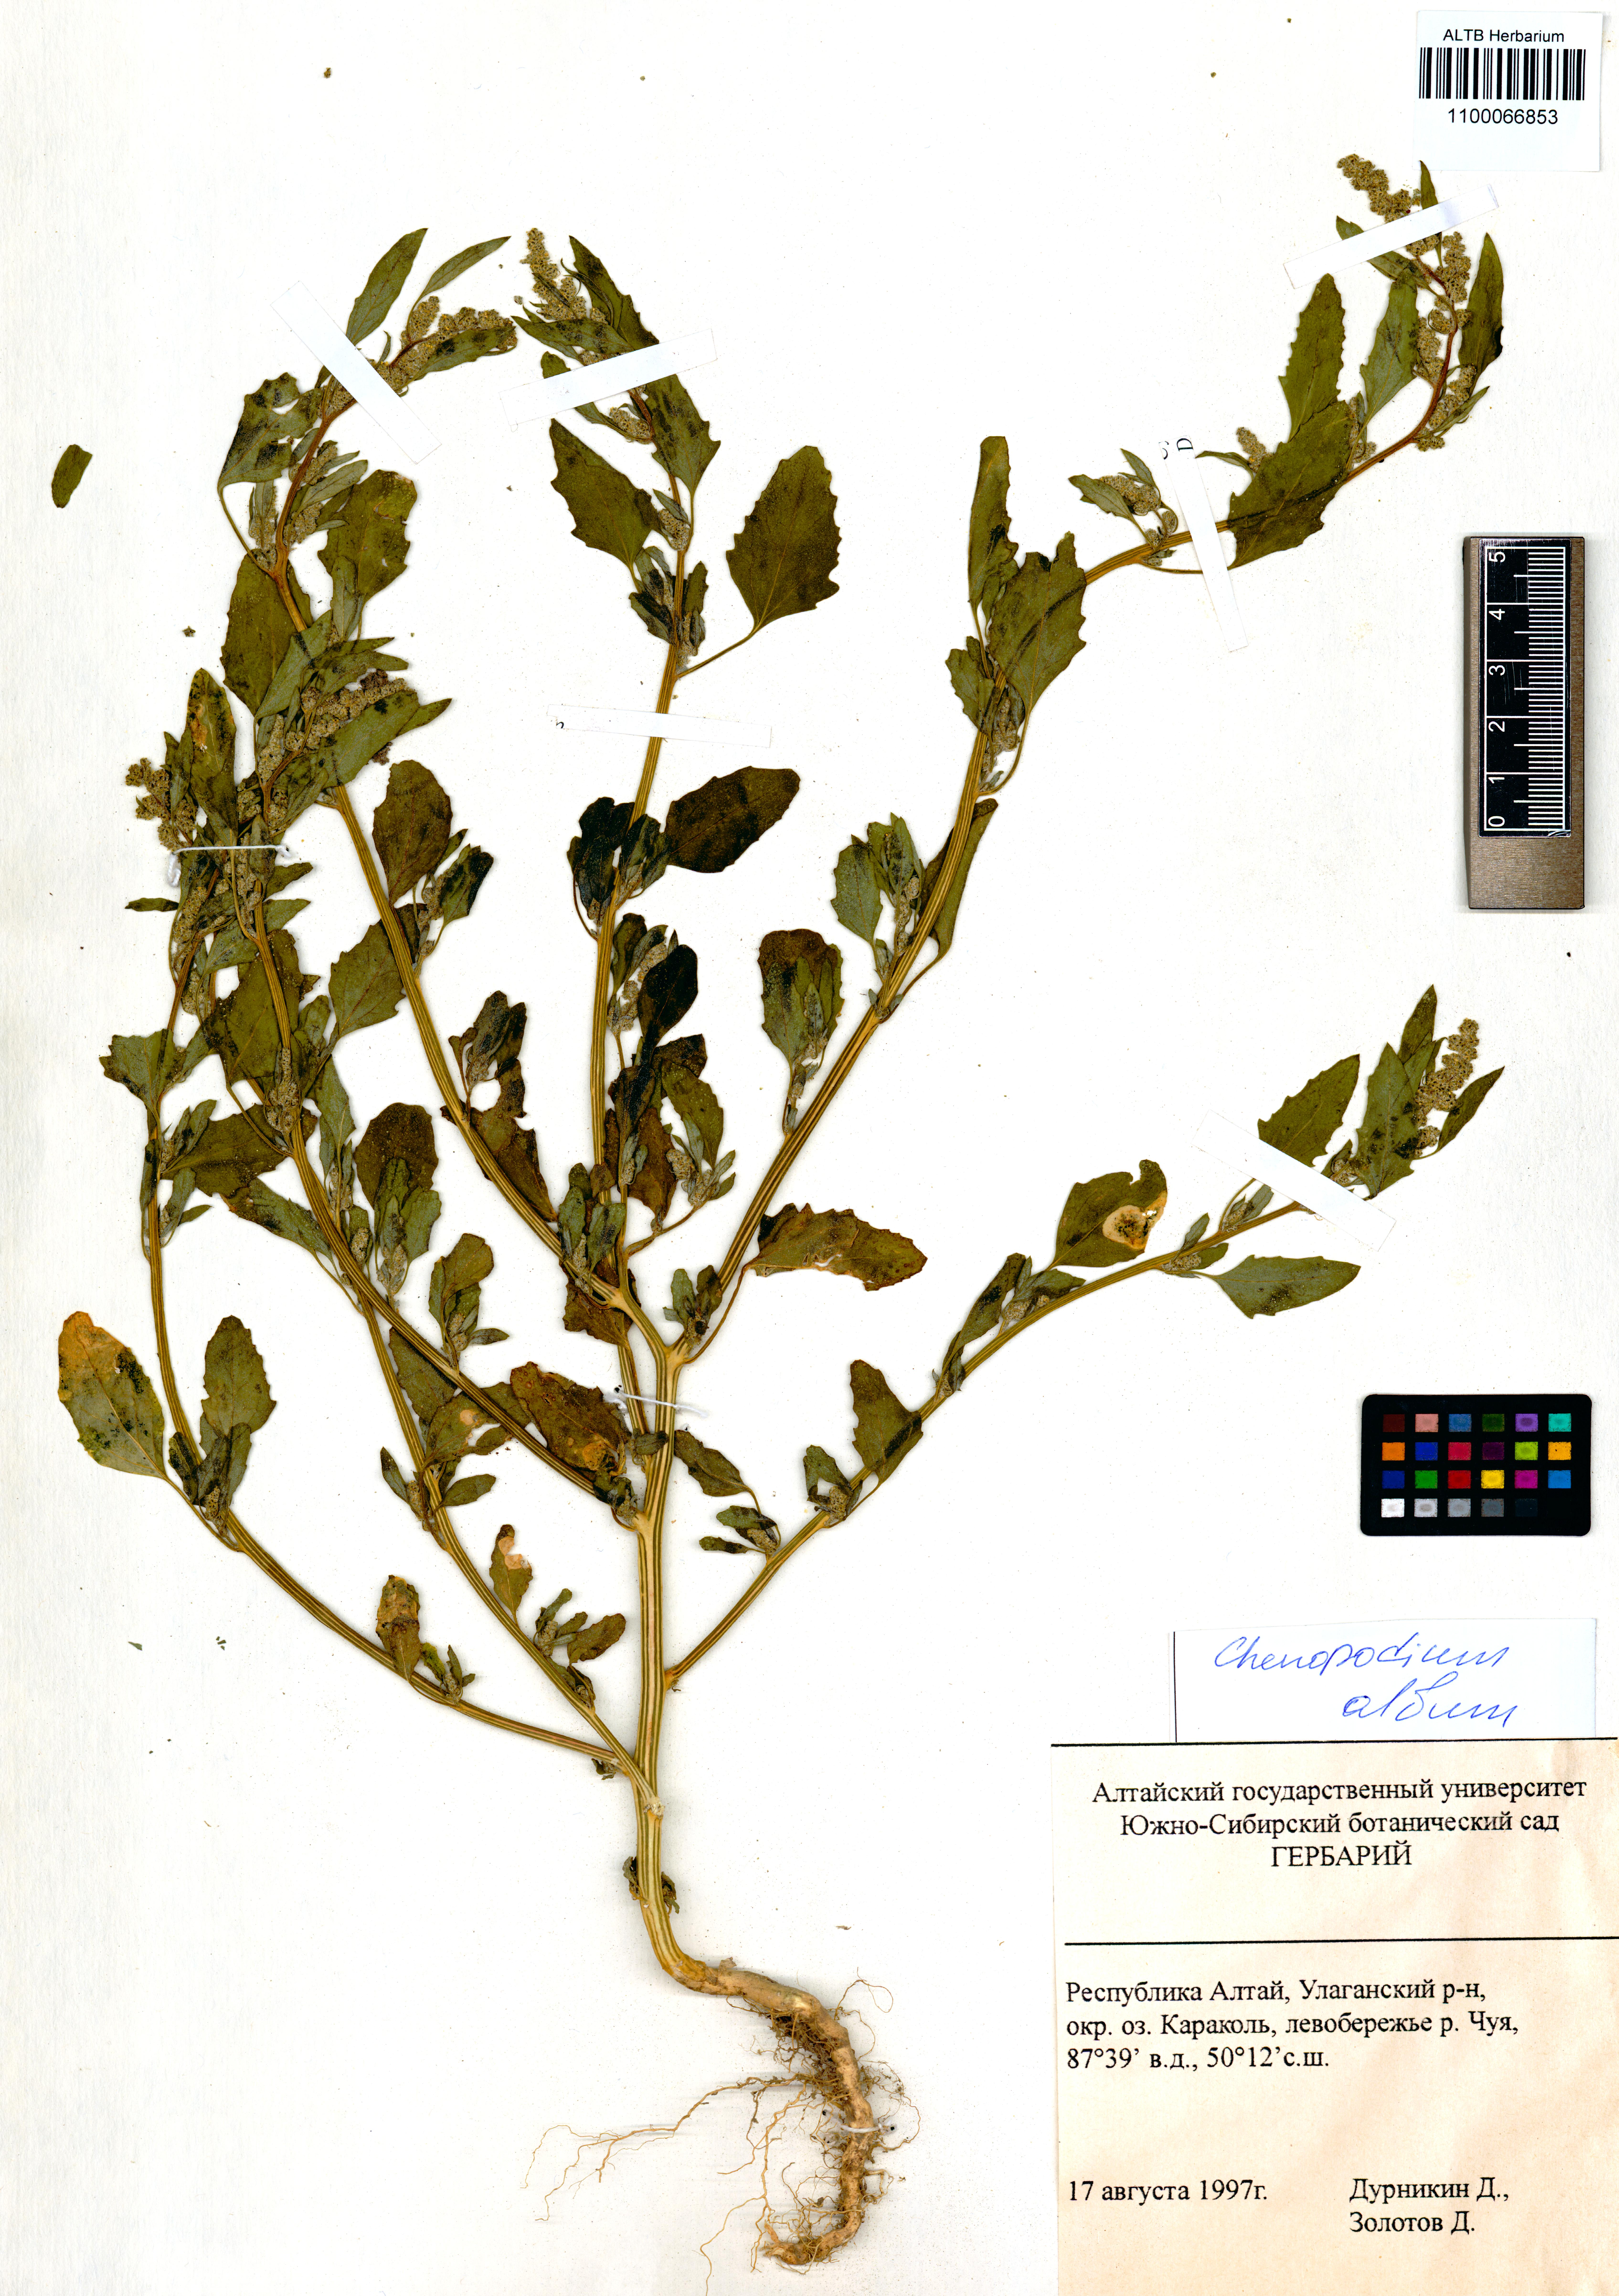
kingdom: Plantae
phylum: Tracheophyta
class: Magnoliopsida
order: Caryophyllales
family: Amaranthaceae
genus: Chenopodium
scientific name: Chenopodium album
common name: Fat-hen
